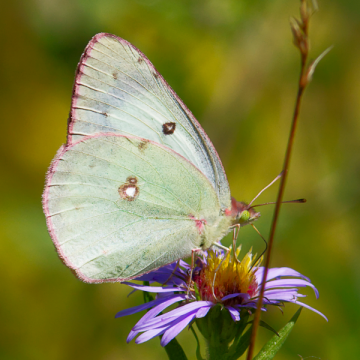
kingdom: Animalia
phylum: Arthropoda
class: Insecta
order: Lepidoptera
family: Pieridae
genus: Colias
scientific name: Colias philodice
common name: Clouded Sulphur
